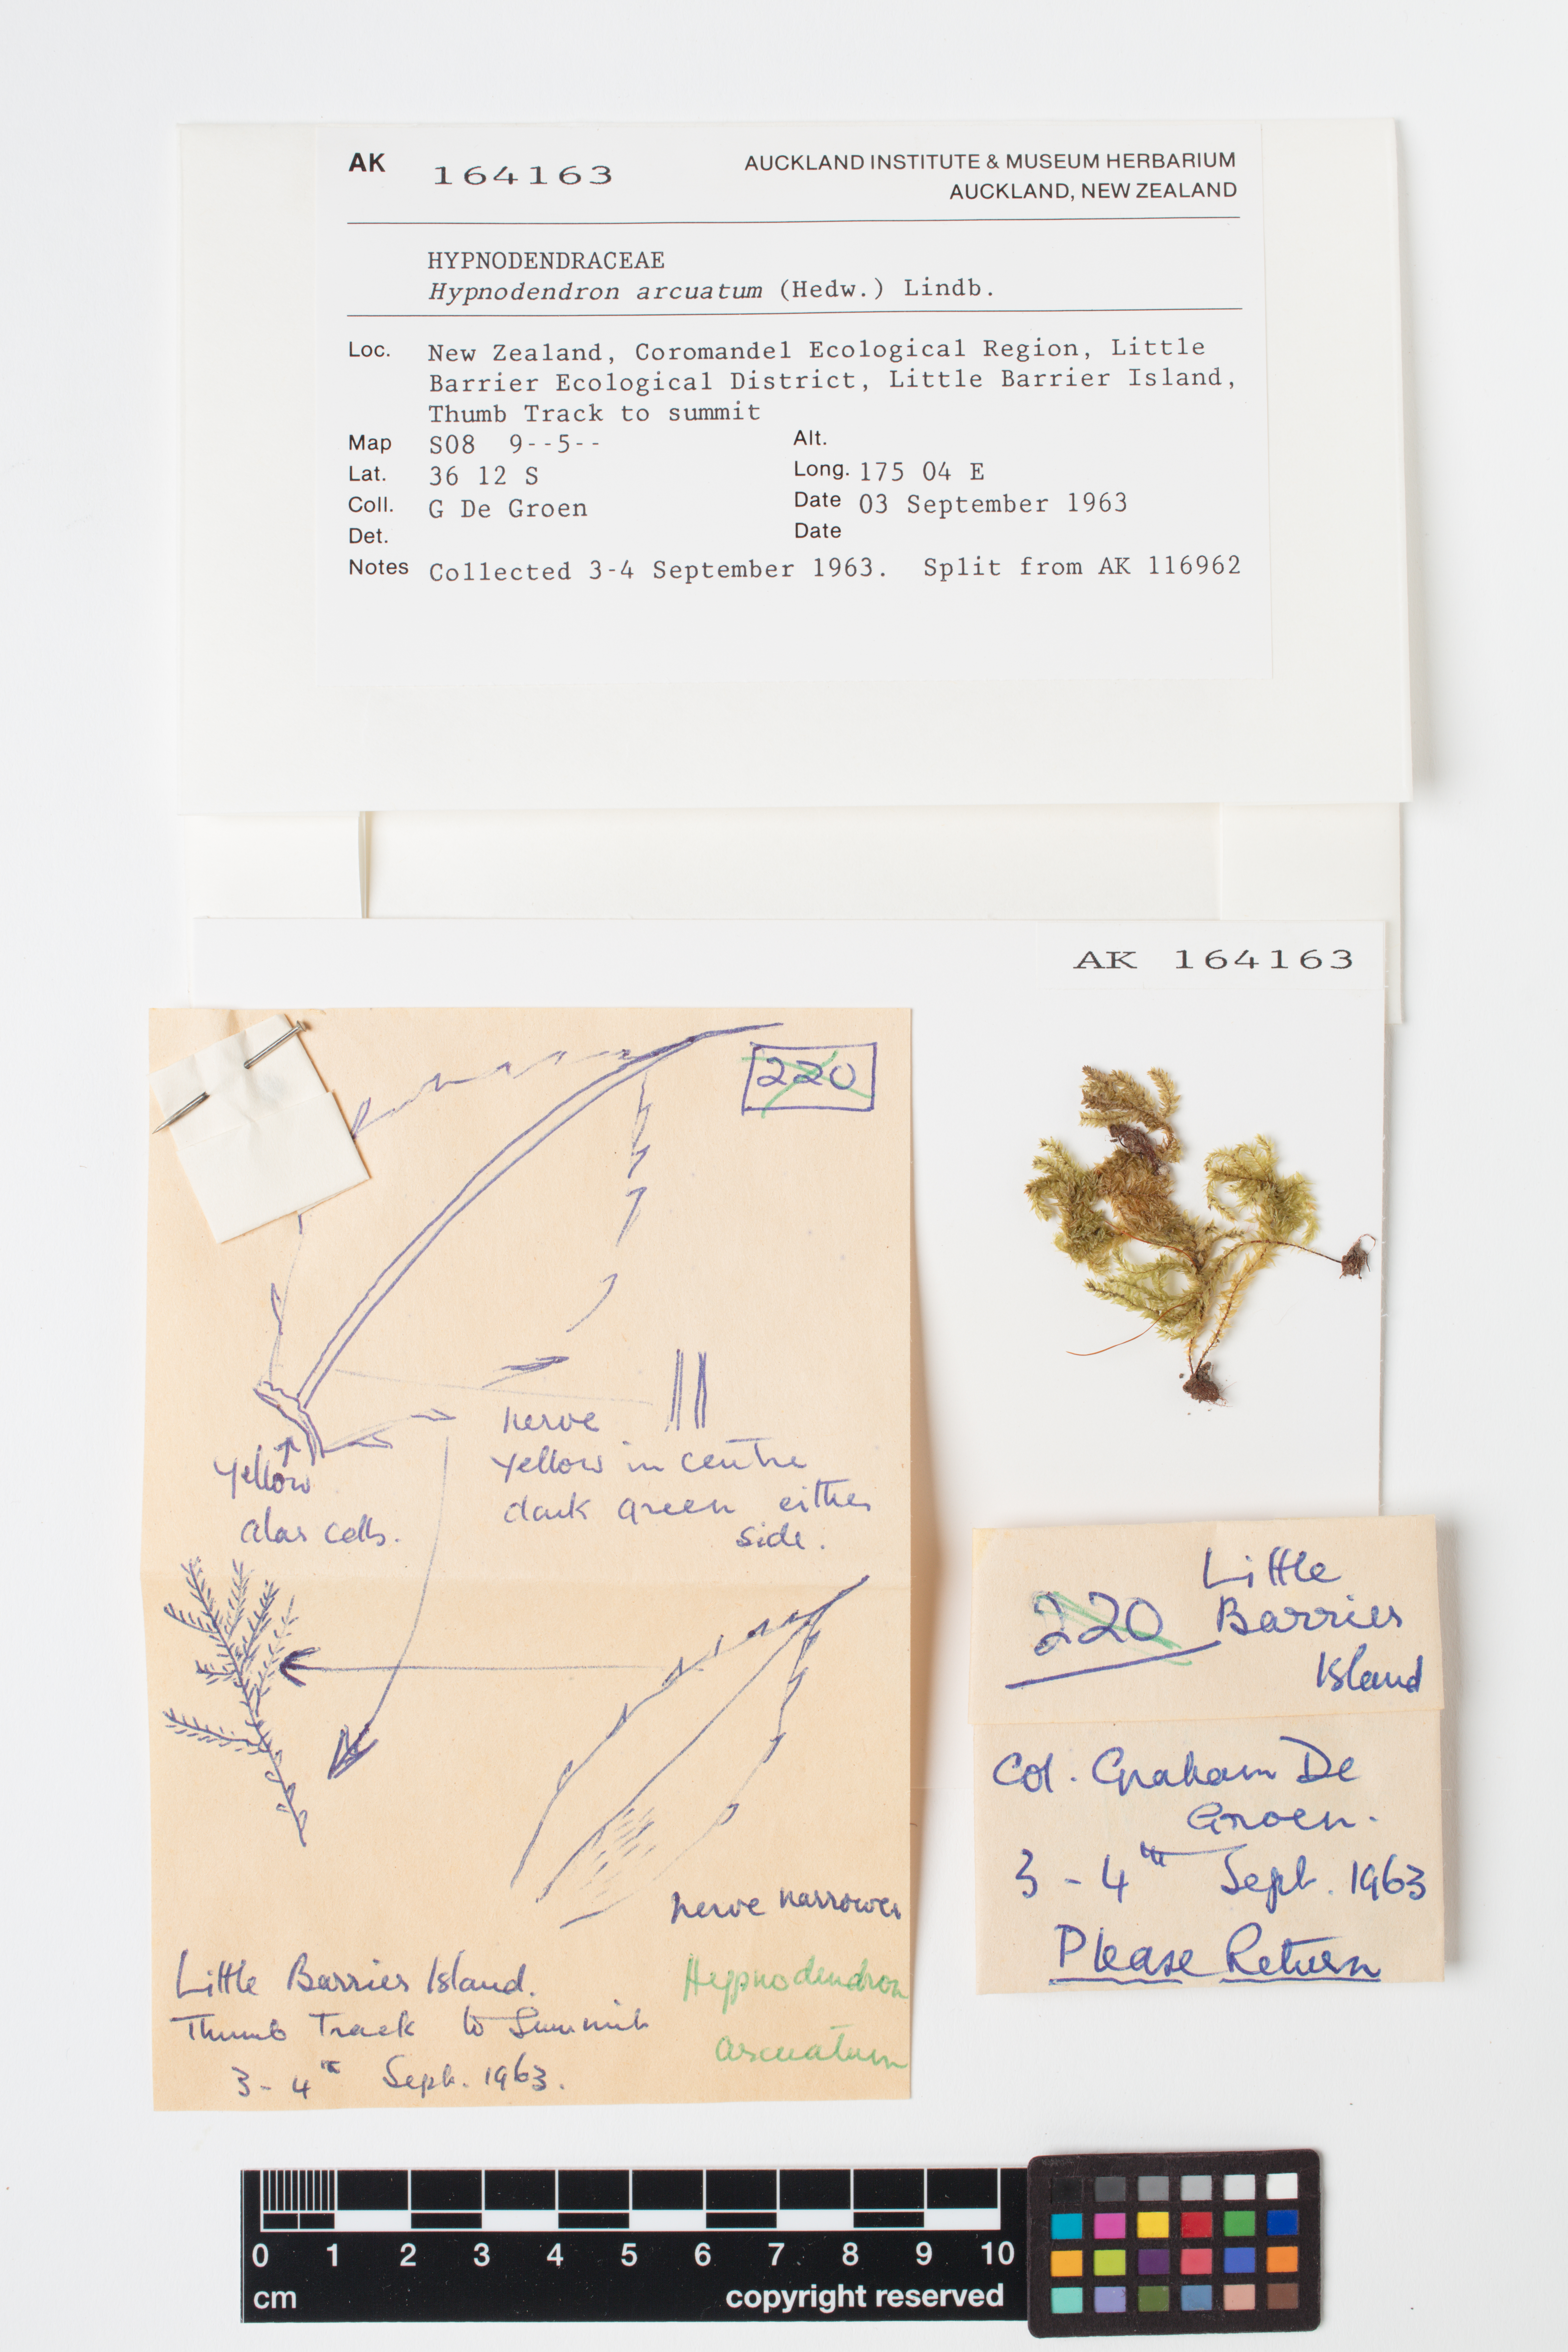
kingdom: Plantae
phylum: Bryophyta
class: Bryopsida
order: Hypnodendrales
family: Spiridentaceae
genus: Hypnodendron
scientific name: Hypnodendron arcuatum
